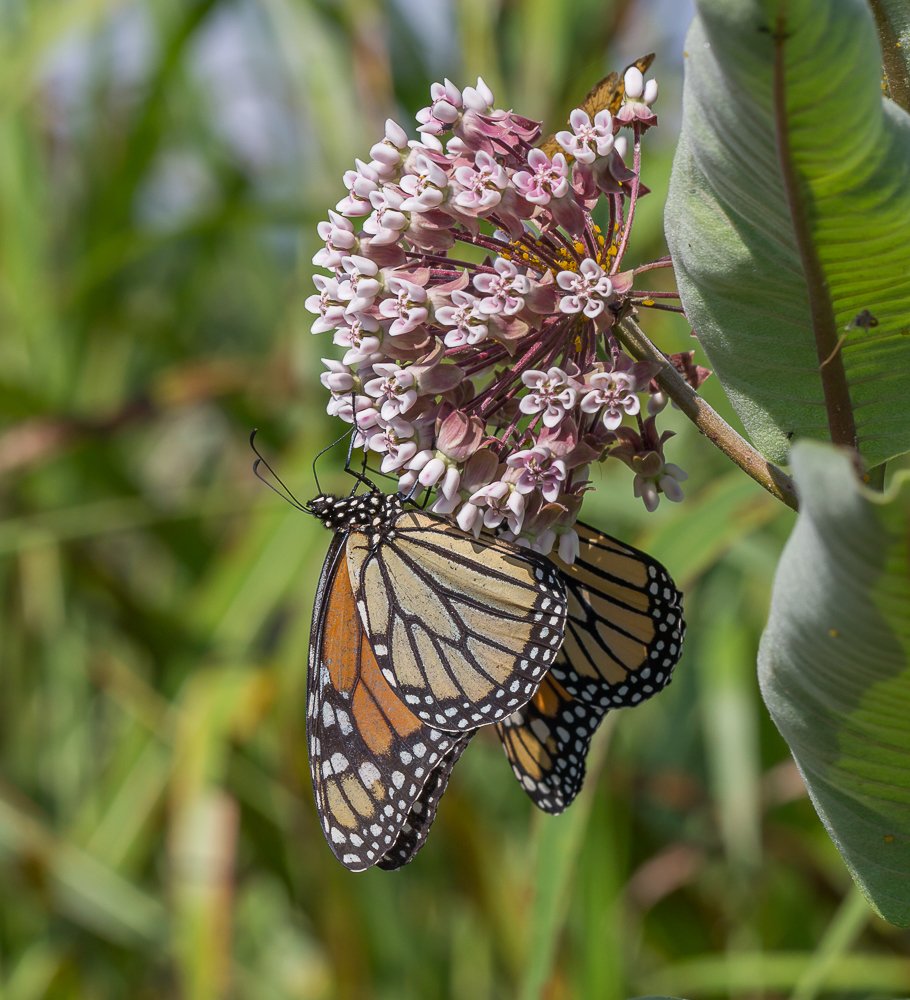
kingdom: Animalia
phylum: Arthropoda
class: Insecta
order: Lepidoptera
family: Nymphalidae
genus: Danaus
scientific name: Danaus plexippus
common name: Monarch
